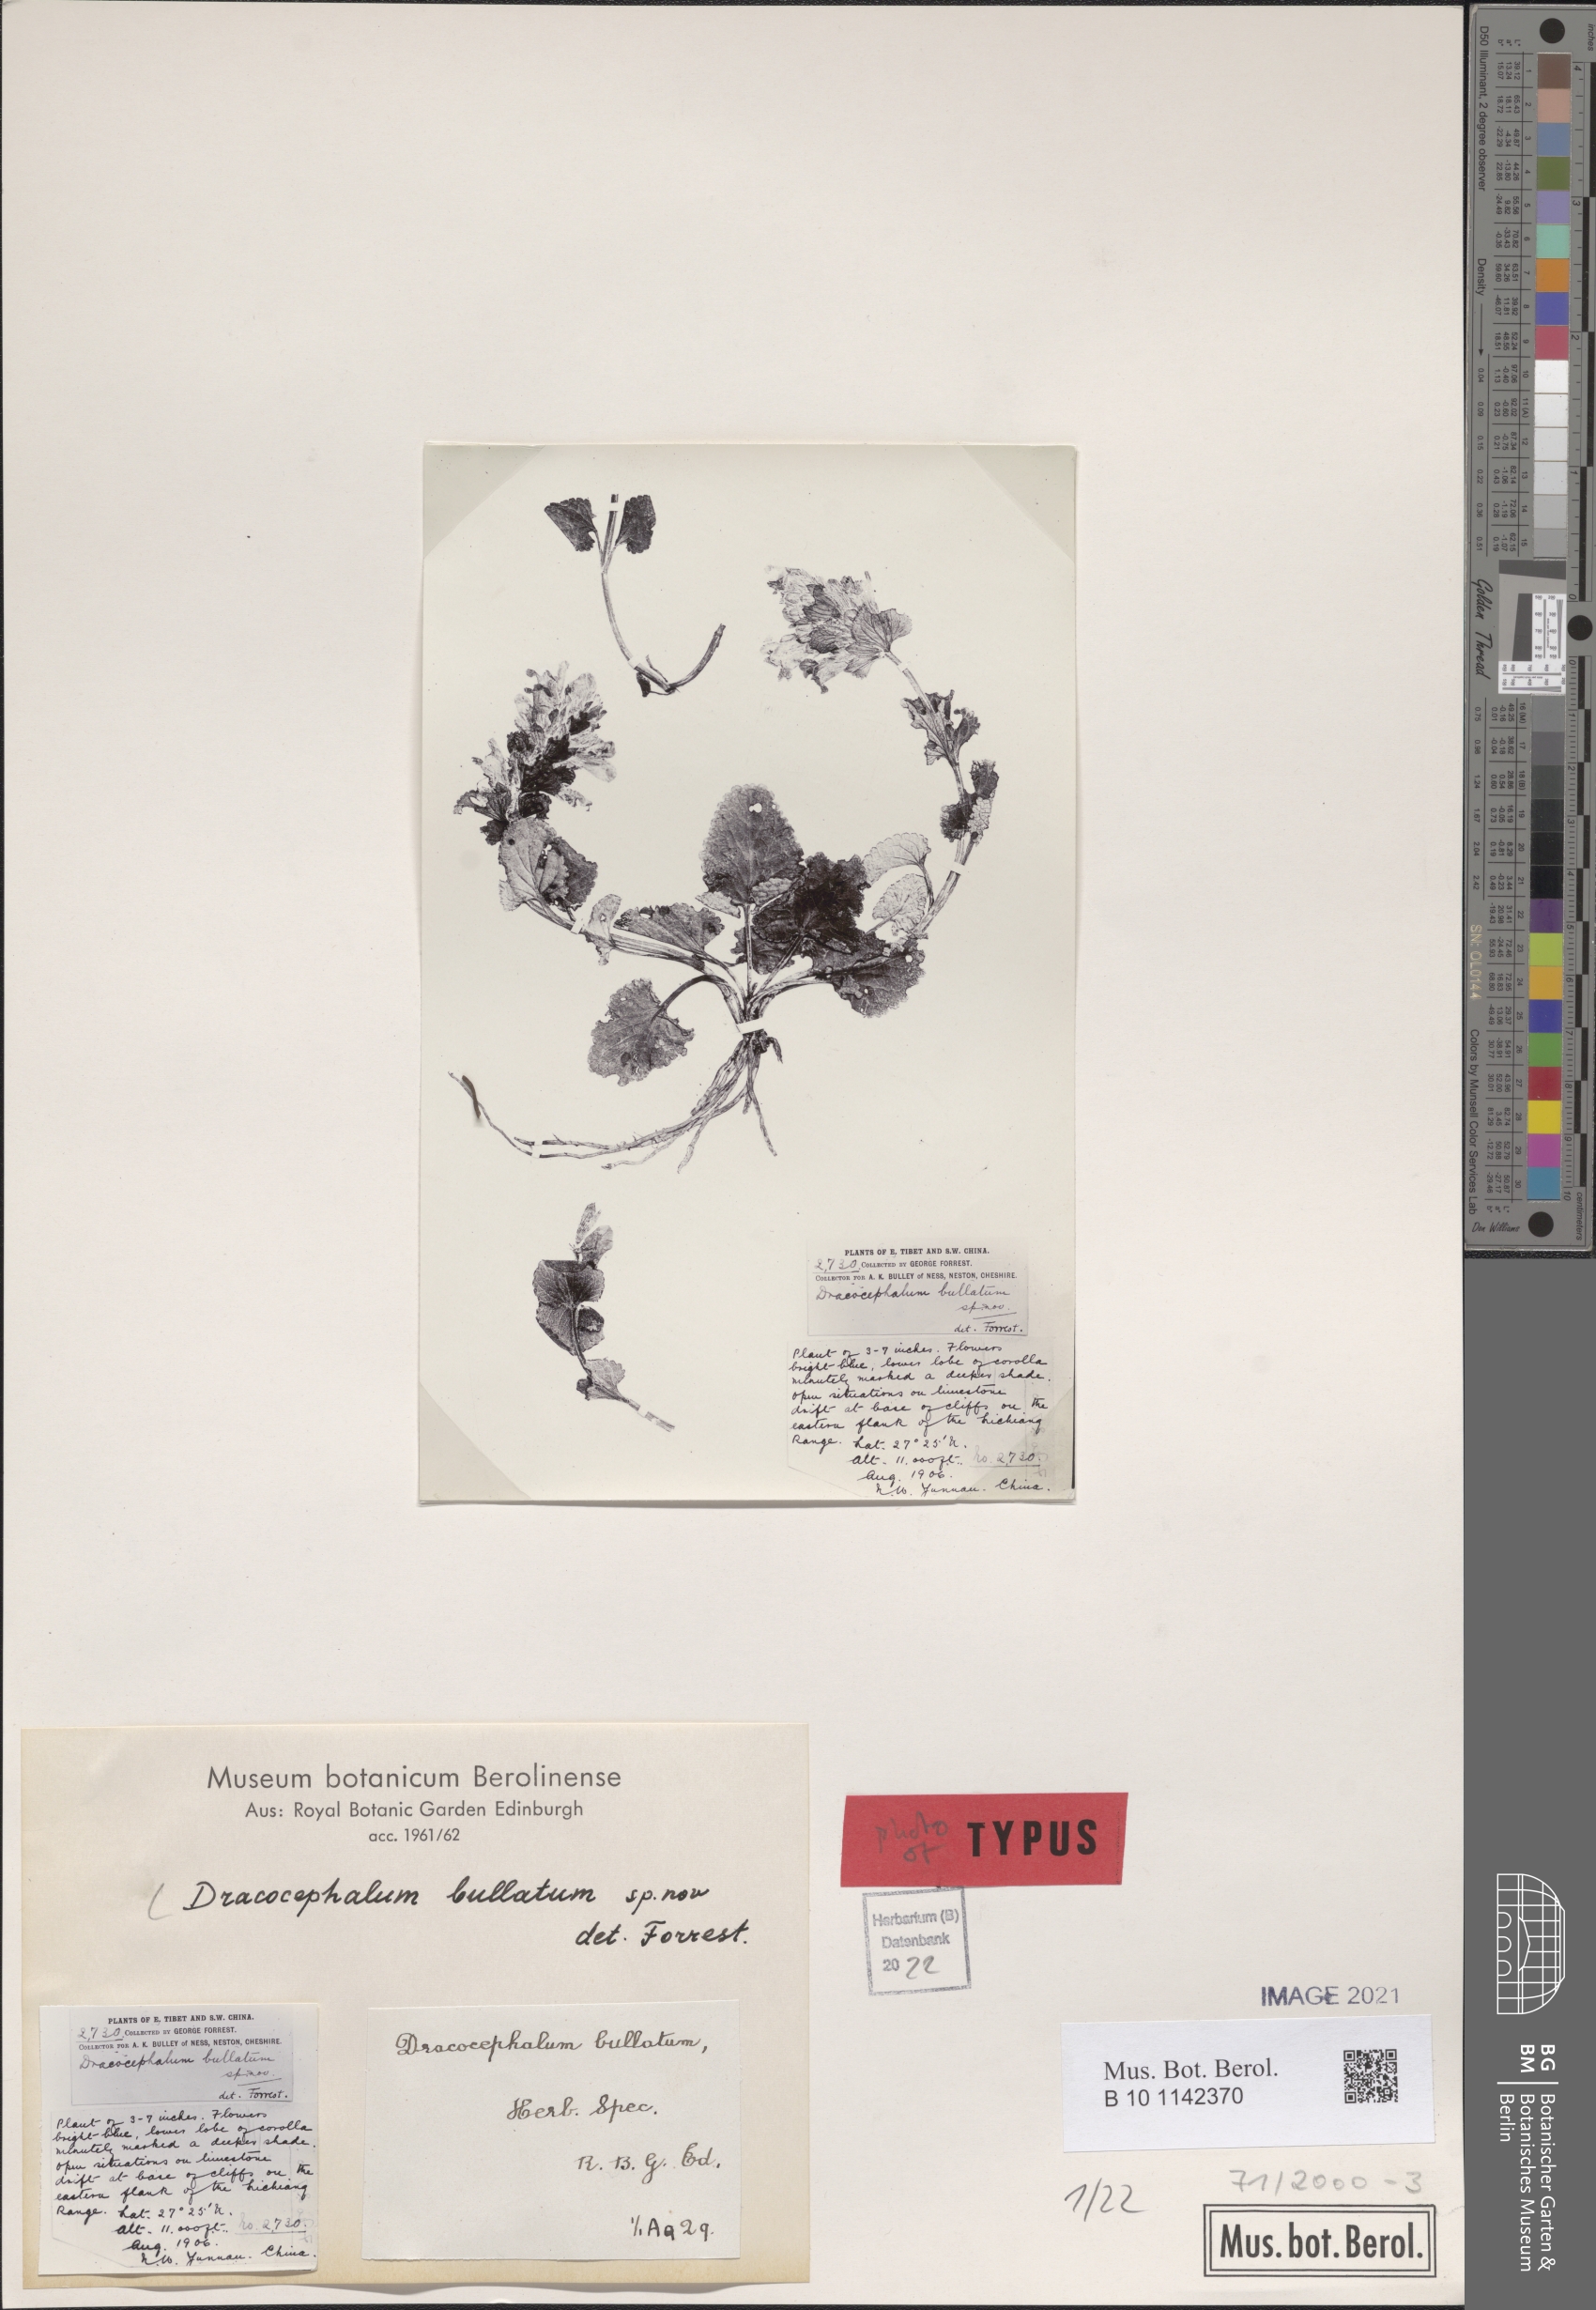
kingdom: Plantae
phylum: Tracheophyta
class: Magnoliopsida
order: Lamiales
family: Lamiaceae
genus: Dracocephalum
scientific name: Dracocephalum bullatum
